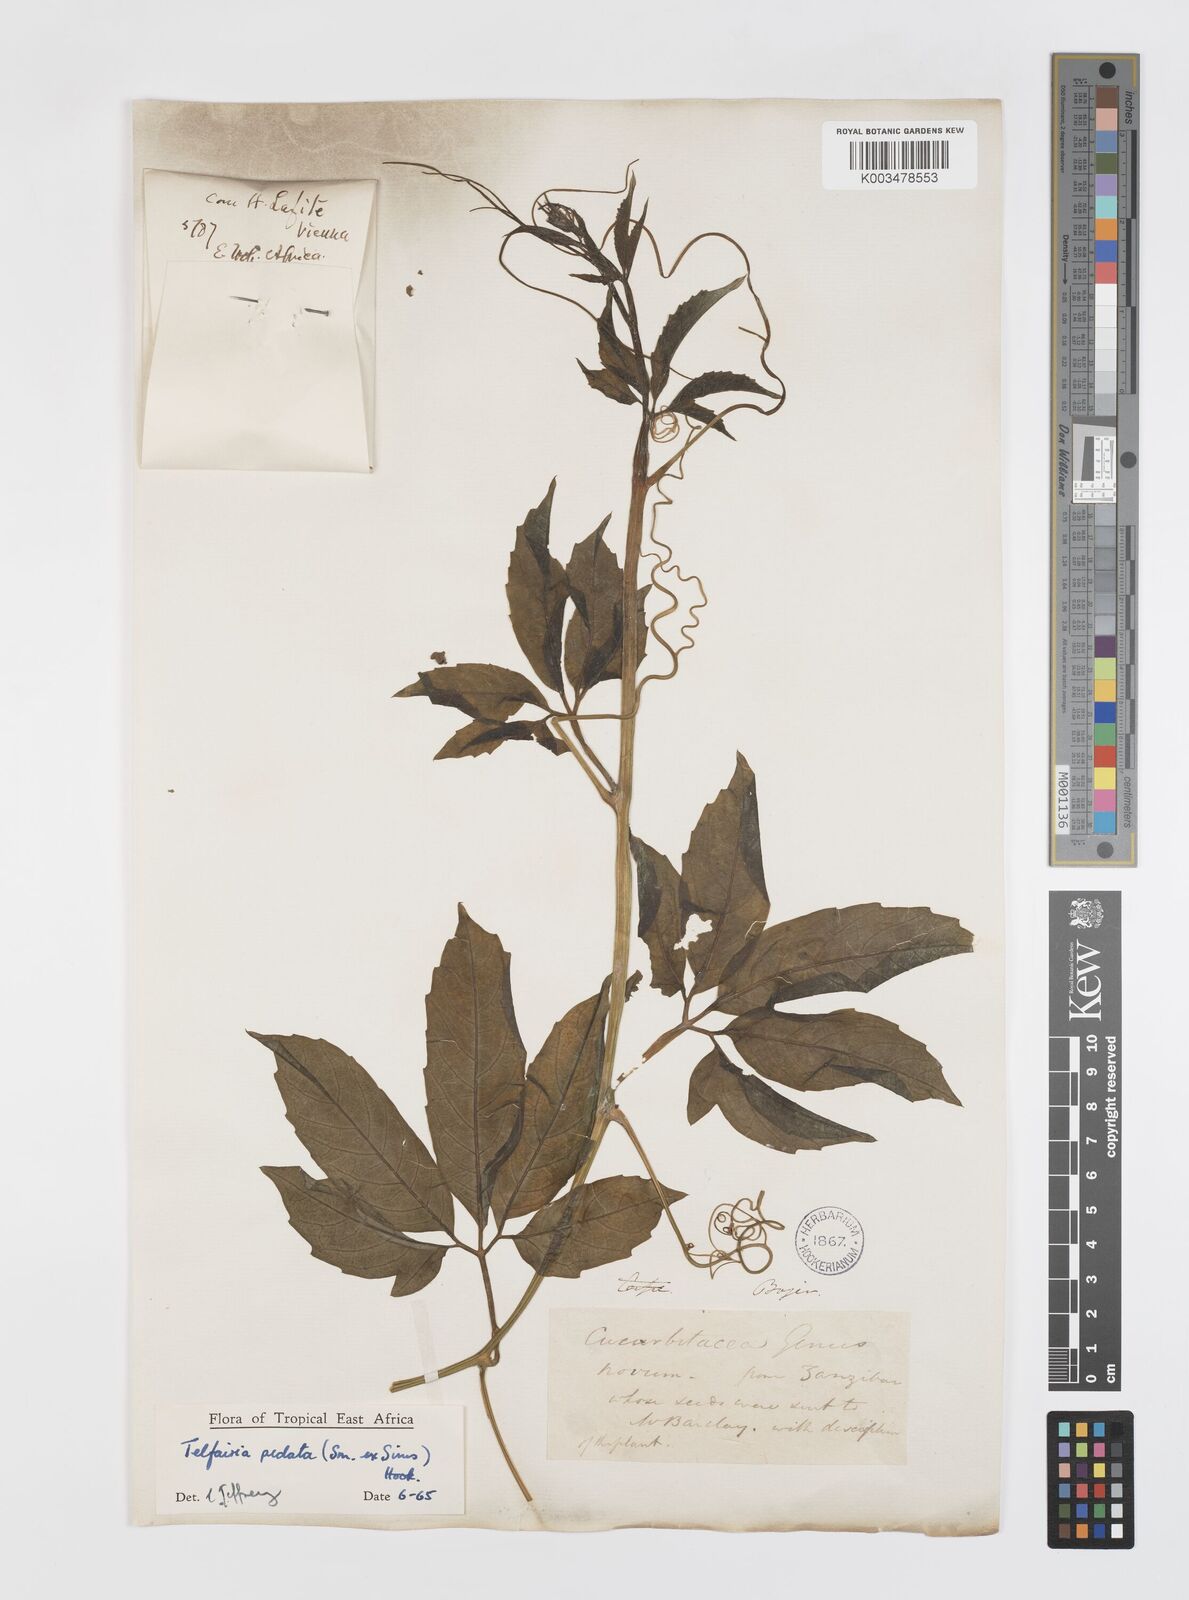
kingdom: Plantae
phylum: Tracheophyta
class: Magnoliopsida
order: Cucurbitales
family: Cucurbitaceae
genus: Telfairia
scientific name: Telfairia pedata
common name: Zanzibar oilvine
